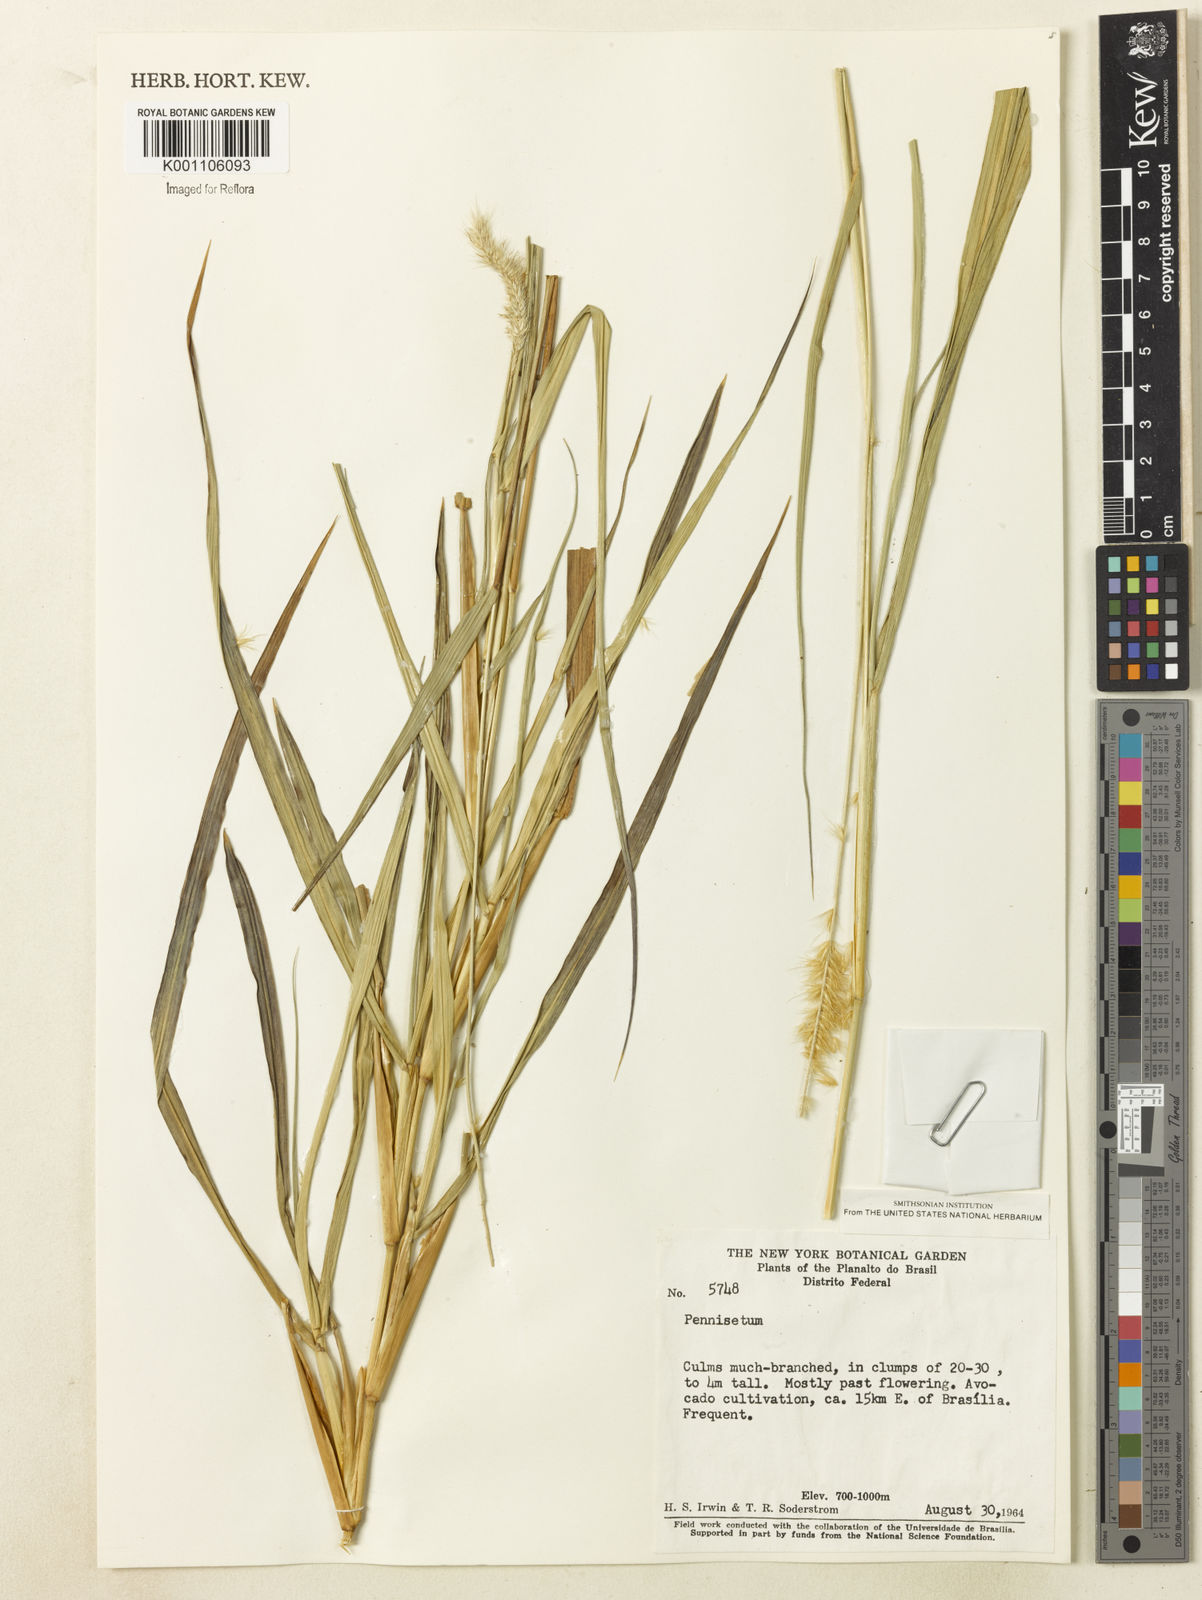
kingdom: Plantae
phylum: Tracheophyta
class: Liliopsida
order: Poales
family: Poaceae
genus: Cenchrus
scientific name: Cenchrus purpureus
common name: Elephant grass
